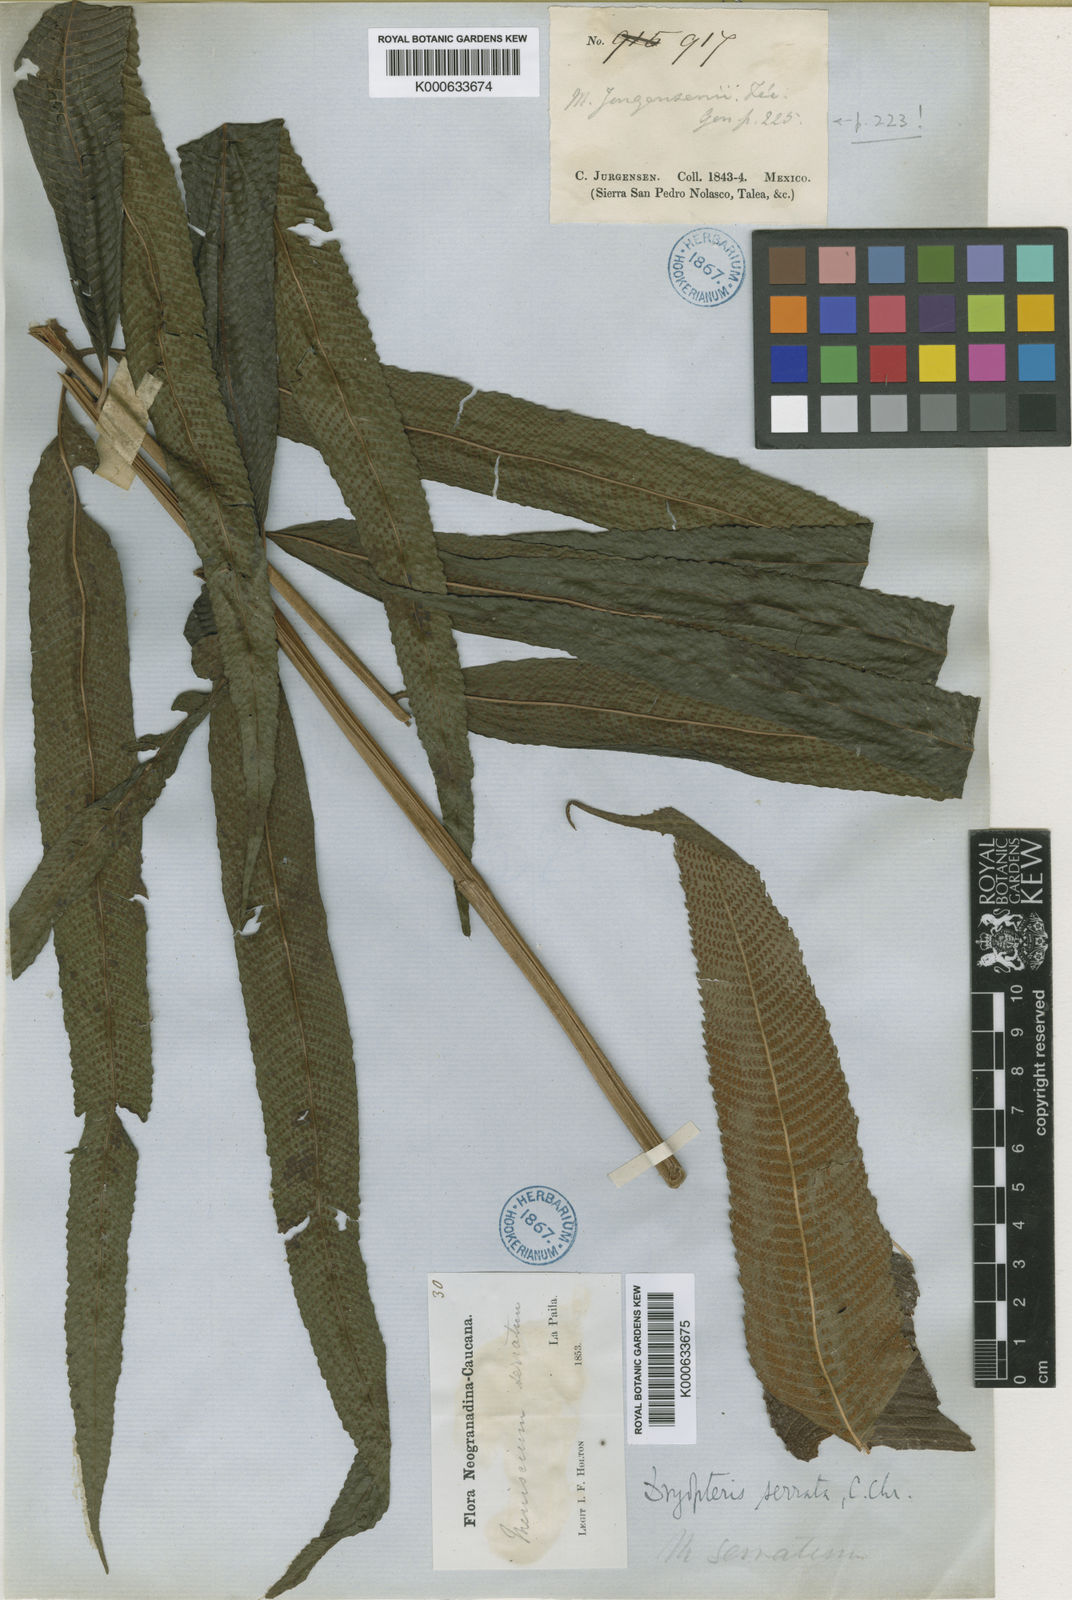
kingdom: Plantae
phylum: Tracheophyta
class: Polypodiopsida
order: Polypodiales
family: Thelypteridaceae
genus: Meniscium
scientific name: Meniscium
